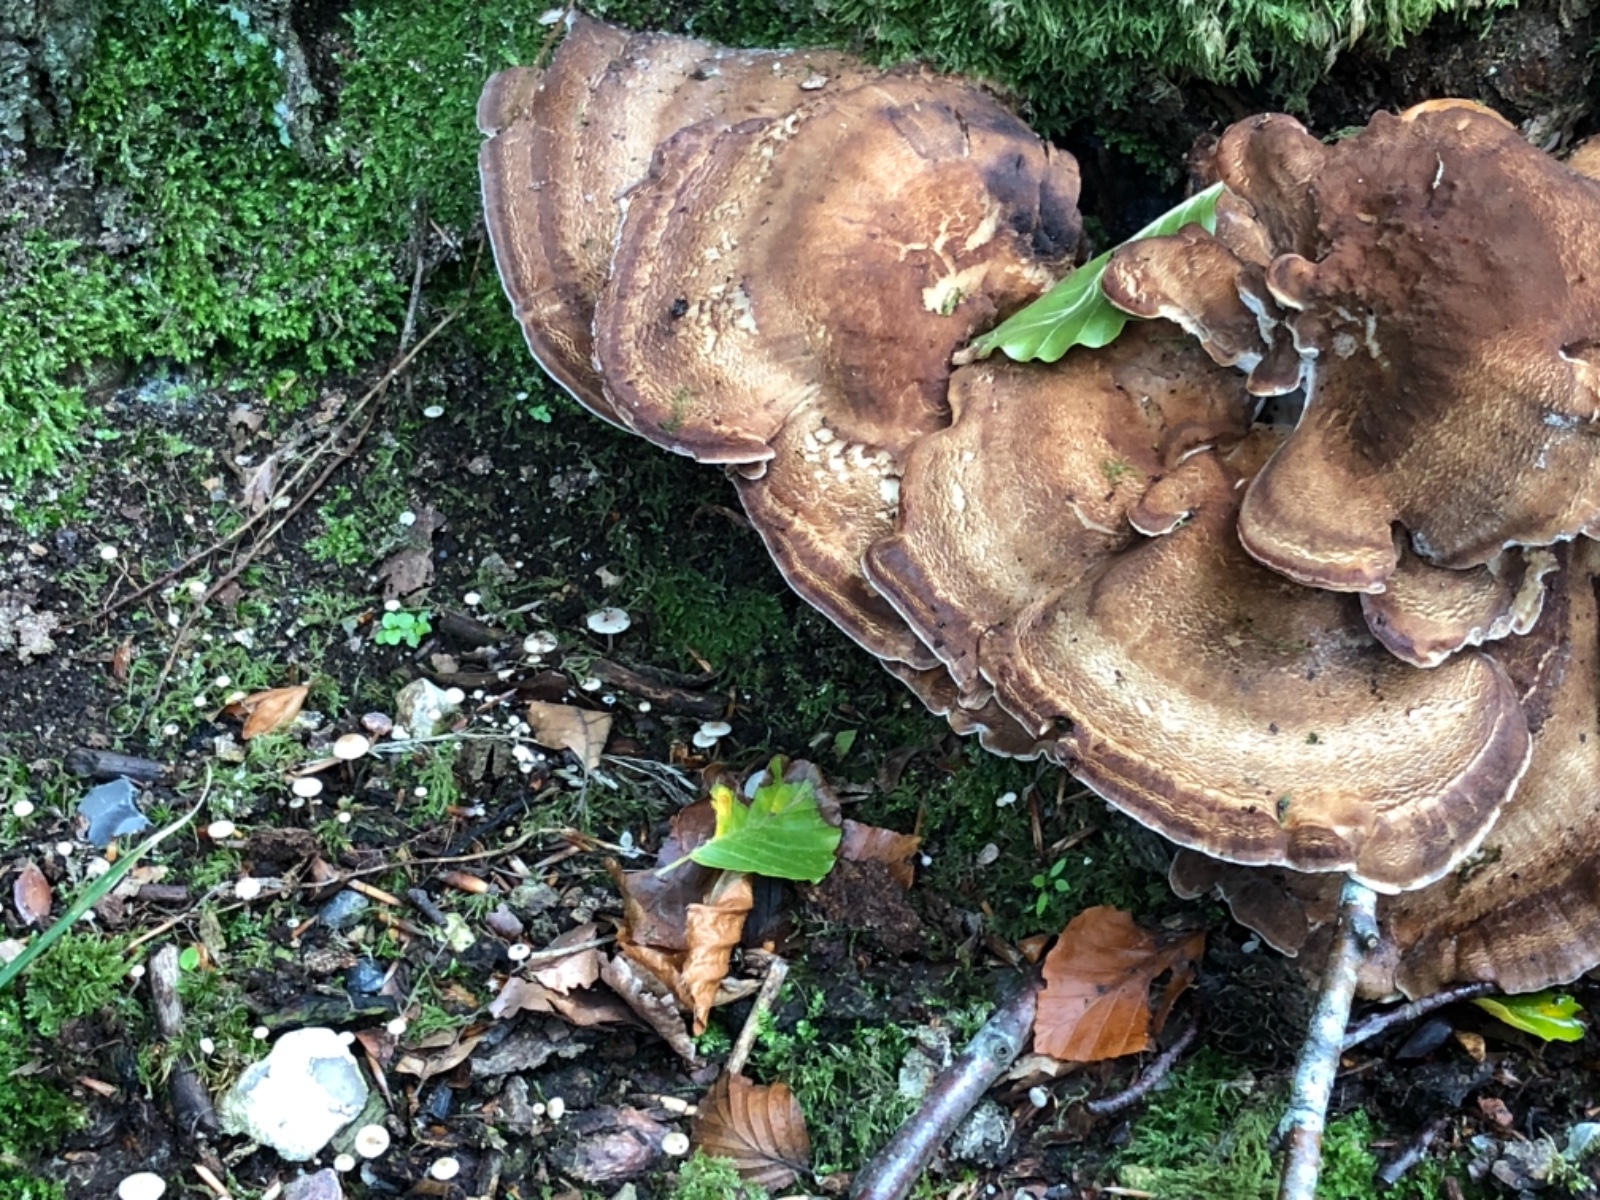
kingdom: Fungi
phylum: Basidiomycota
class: Agaricomycetes
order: Agaricales
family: Tricholomataceae
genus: Collybia
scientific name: Collybia cookei
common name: gulknoldet lighat
